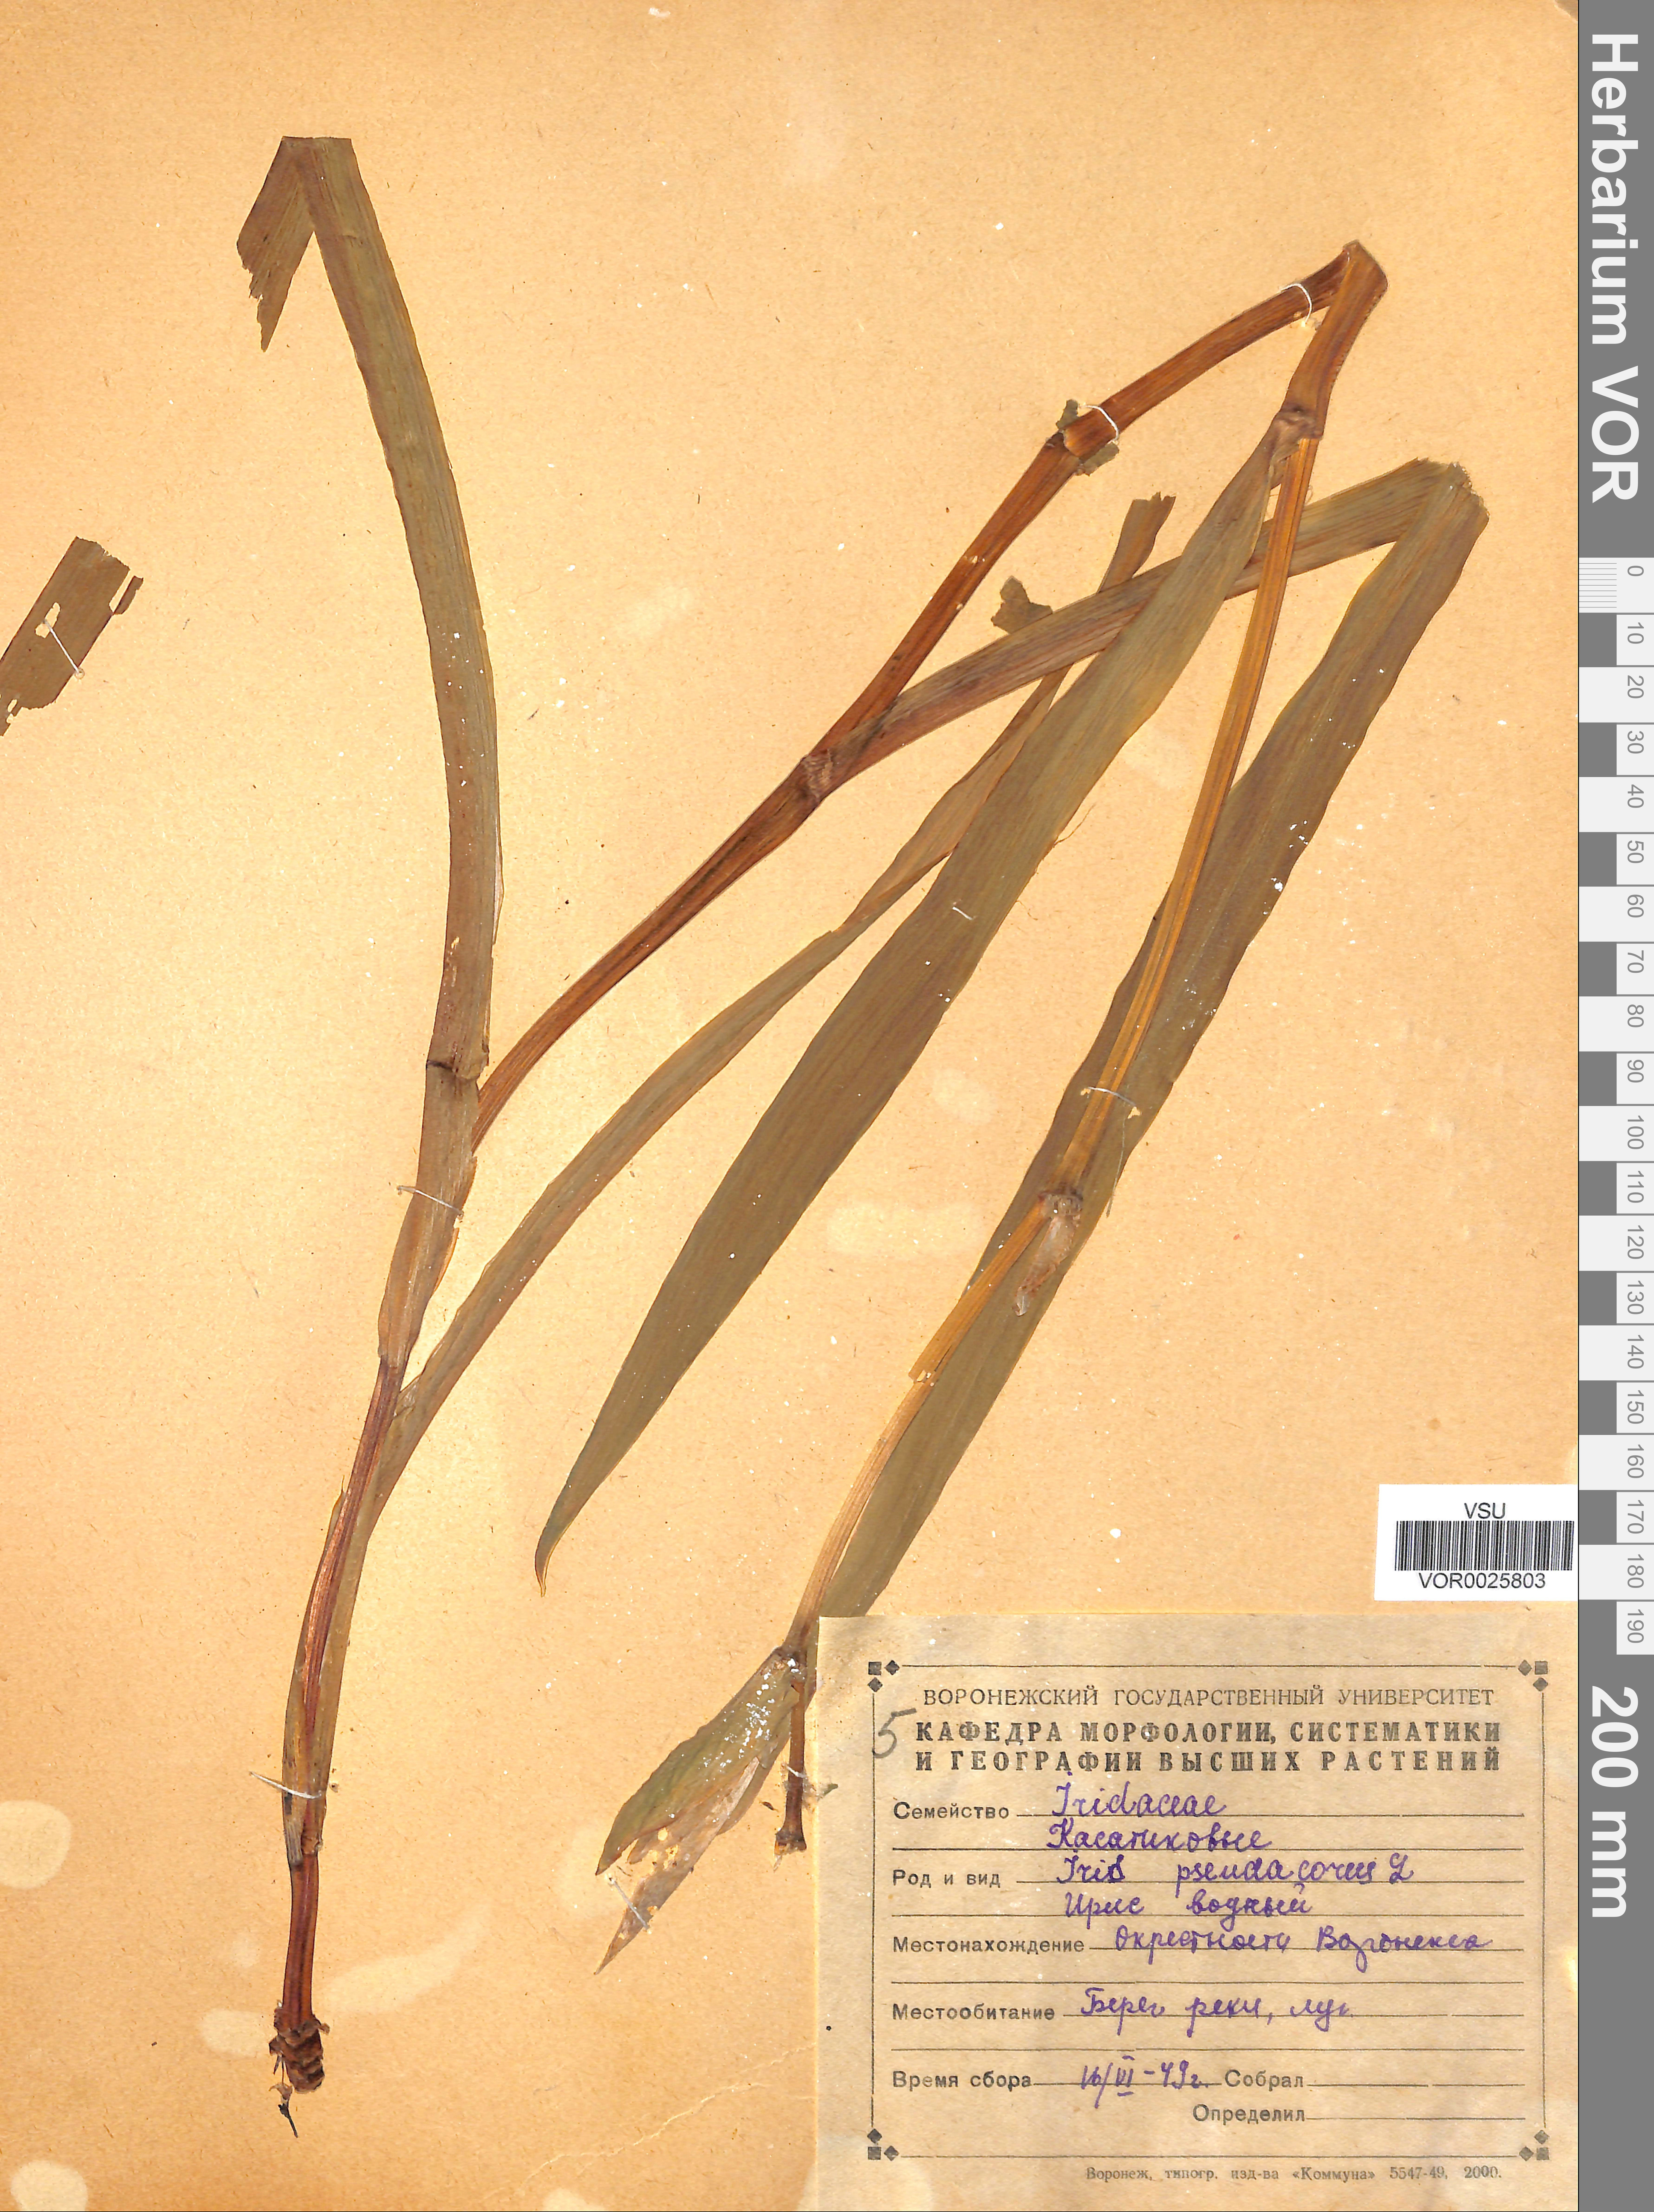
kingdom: Plantae
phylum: Tracheophyta
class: Liliopsida
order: Asparagales
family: Iridaceae
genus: Iris
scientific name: Iris pseudacorus
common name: Yellow flag
